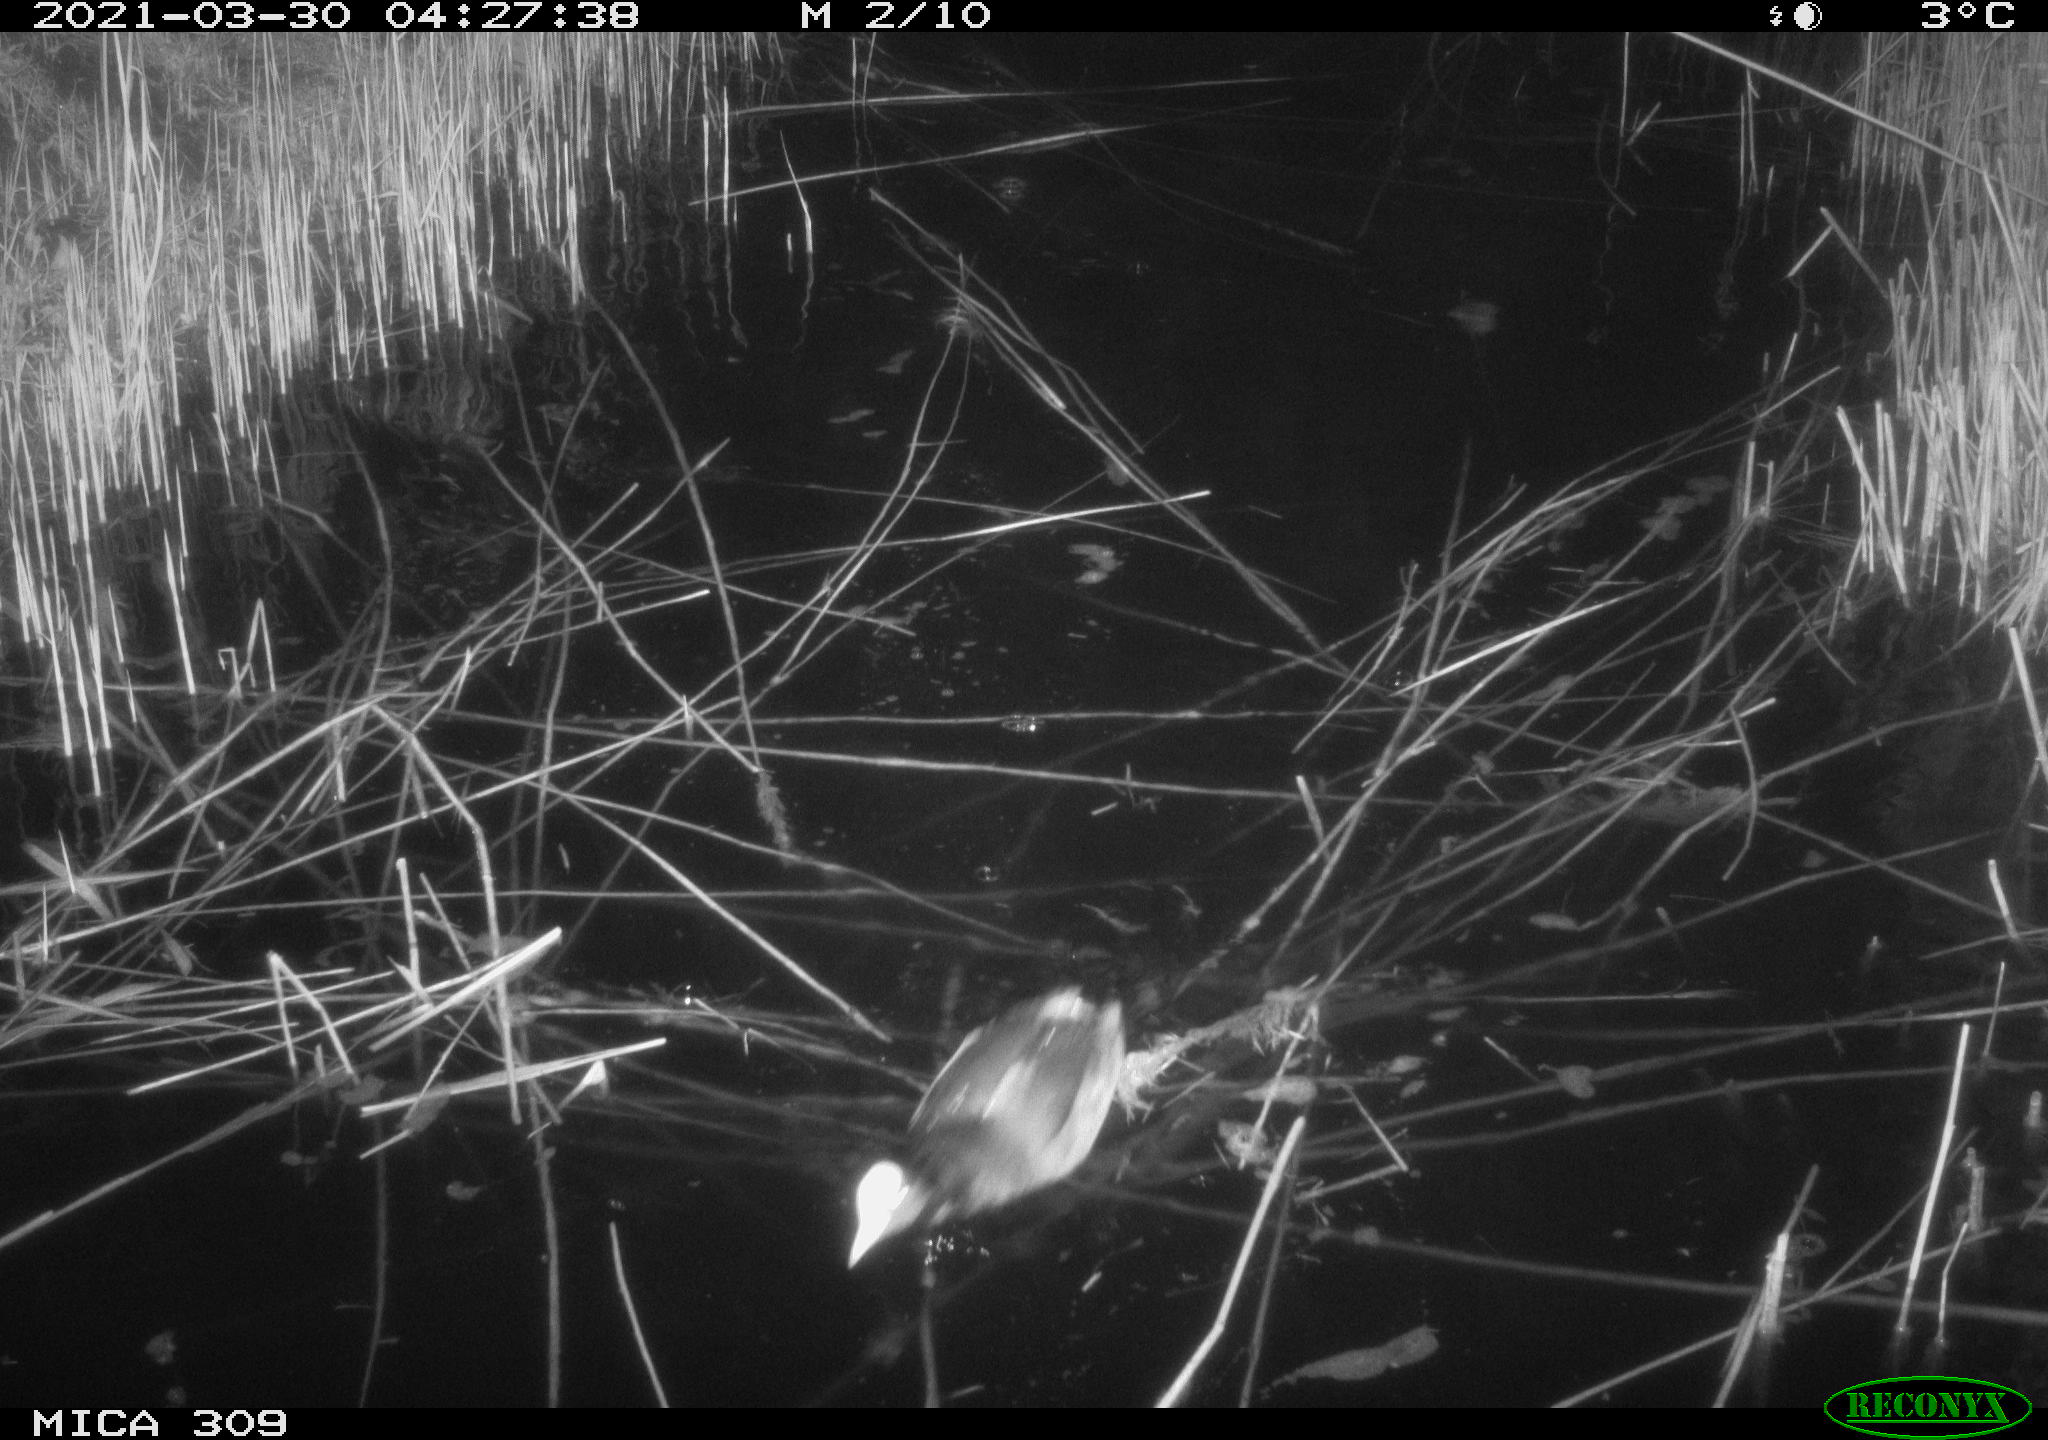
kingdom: Animalia
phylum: Chordata
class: Aves
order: Gruiformes
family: Rallidae
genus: Fulica
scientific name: Fulica atra
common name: Eurasian coot
